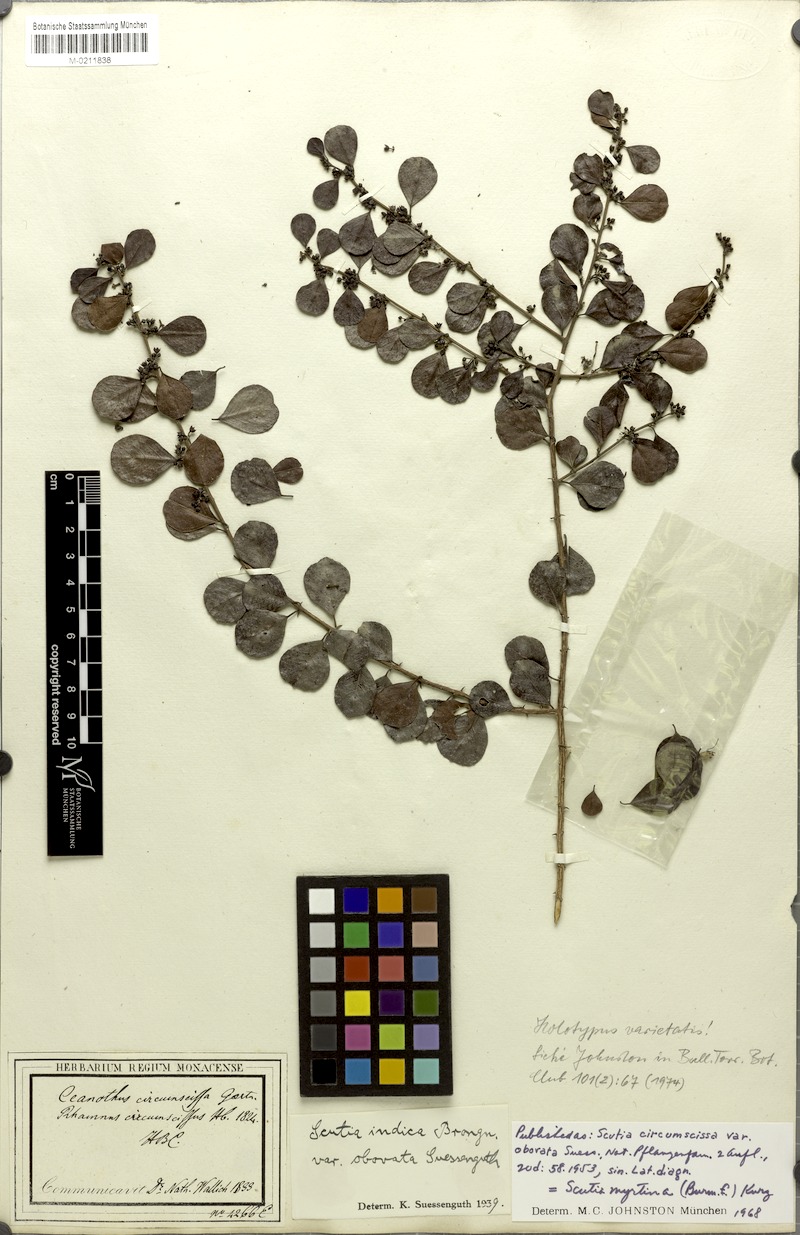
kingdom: Plantae
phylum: Tracheophyta
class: Magnoliopsida
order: Rosales
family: Rhamnaceae
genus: Scutia
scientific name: Scutia myrtina
